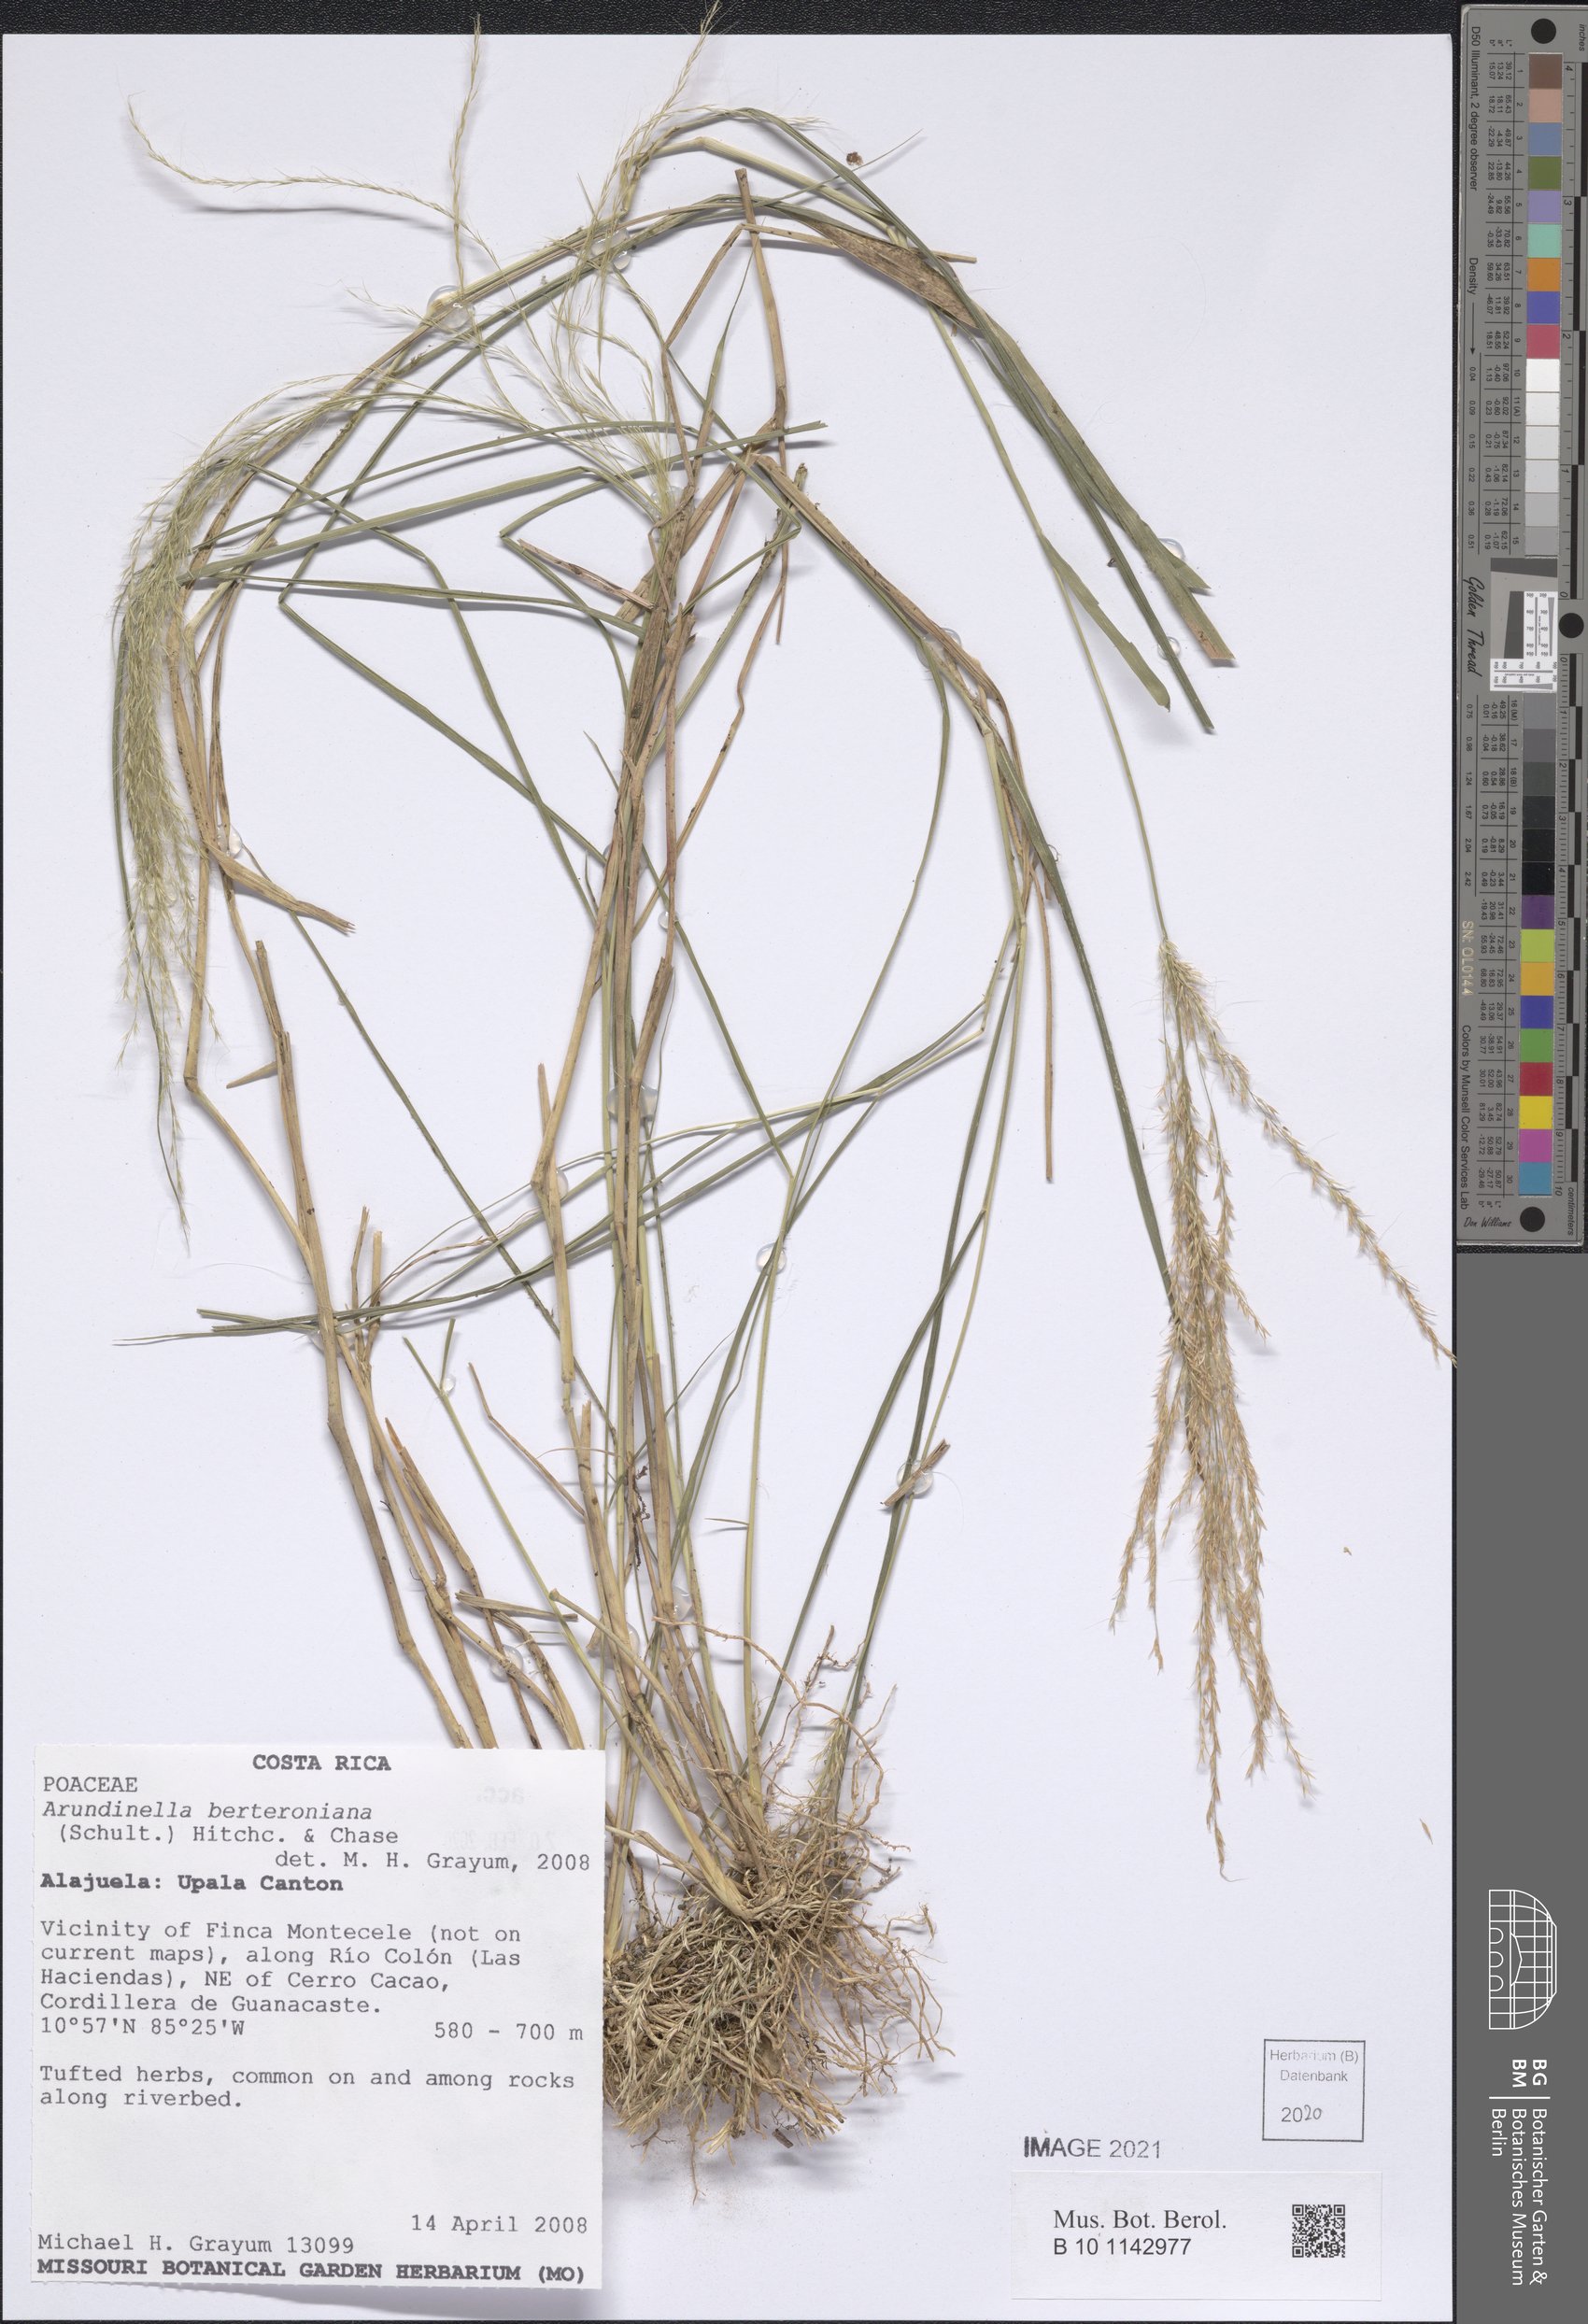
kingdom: Plantae
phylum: Tracheophyta
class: Liliopsida
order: Poales
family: Poaceae
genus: Arundinella
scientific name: Arundinella berteroniana
